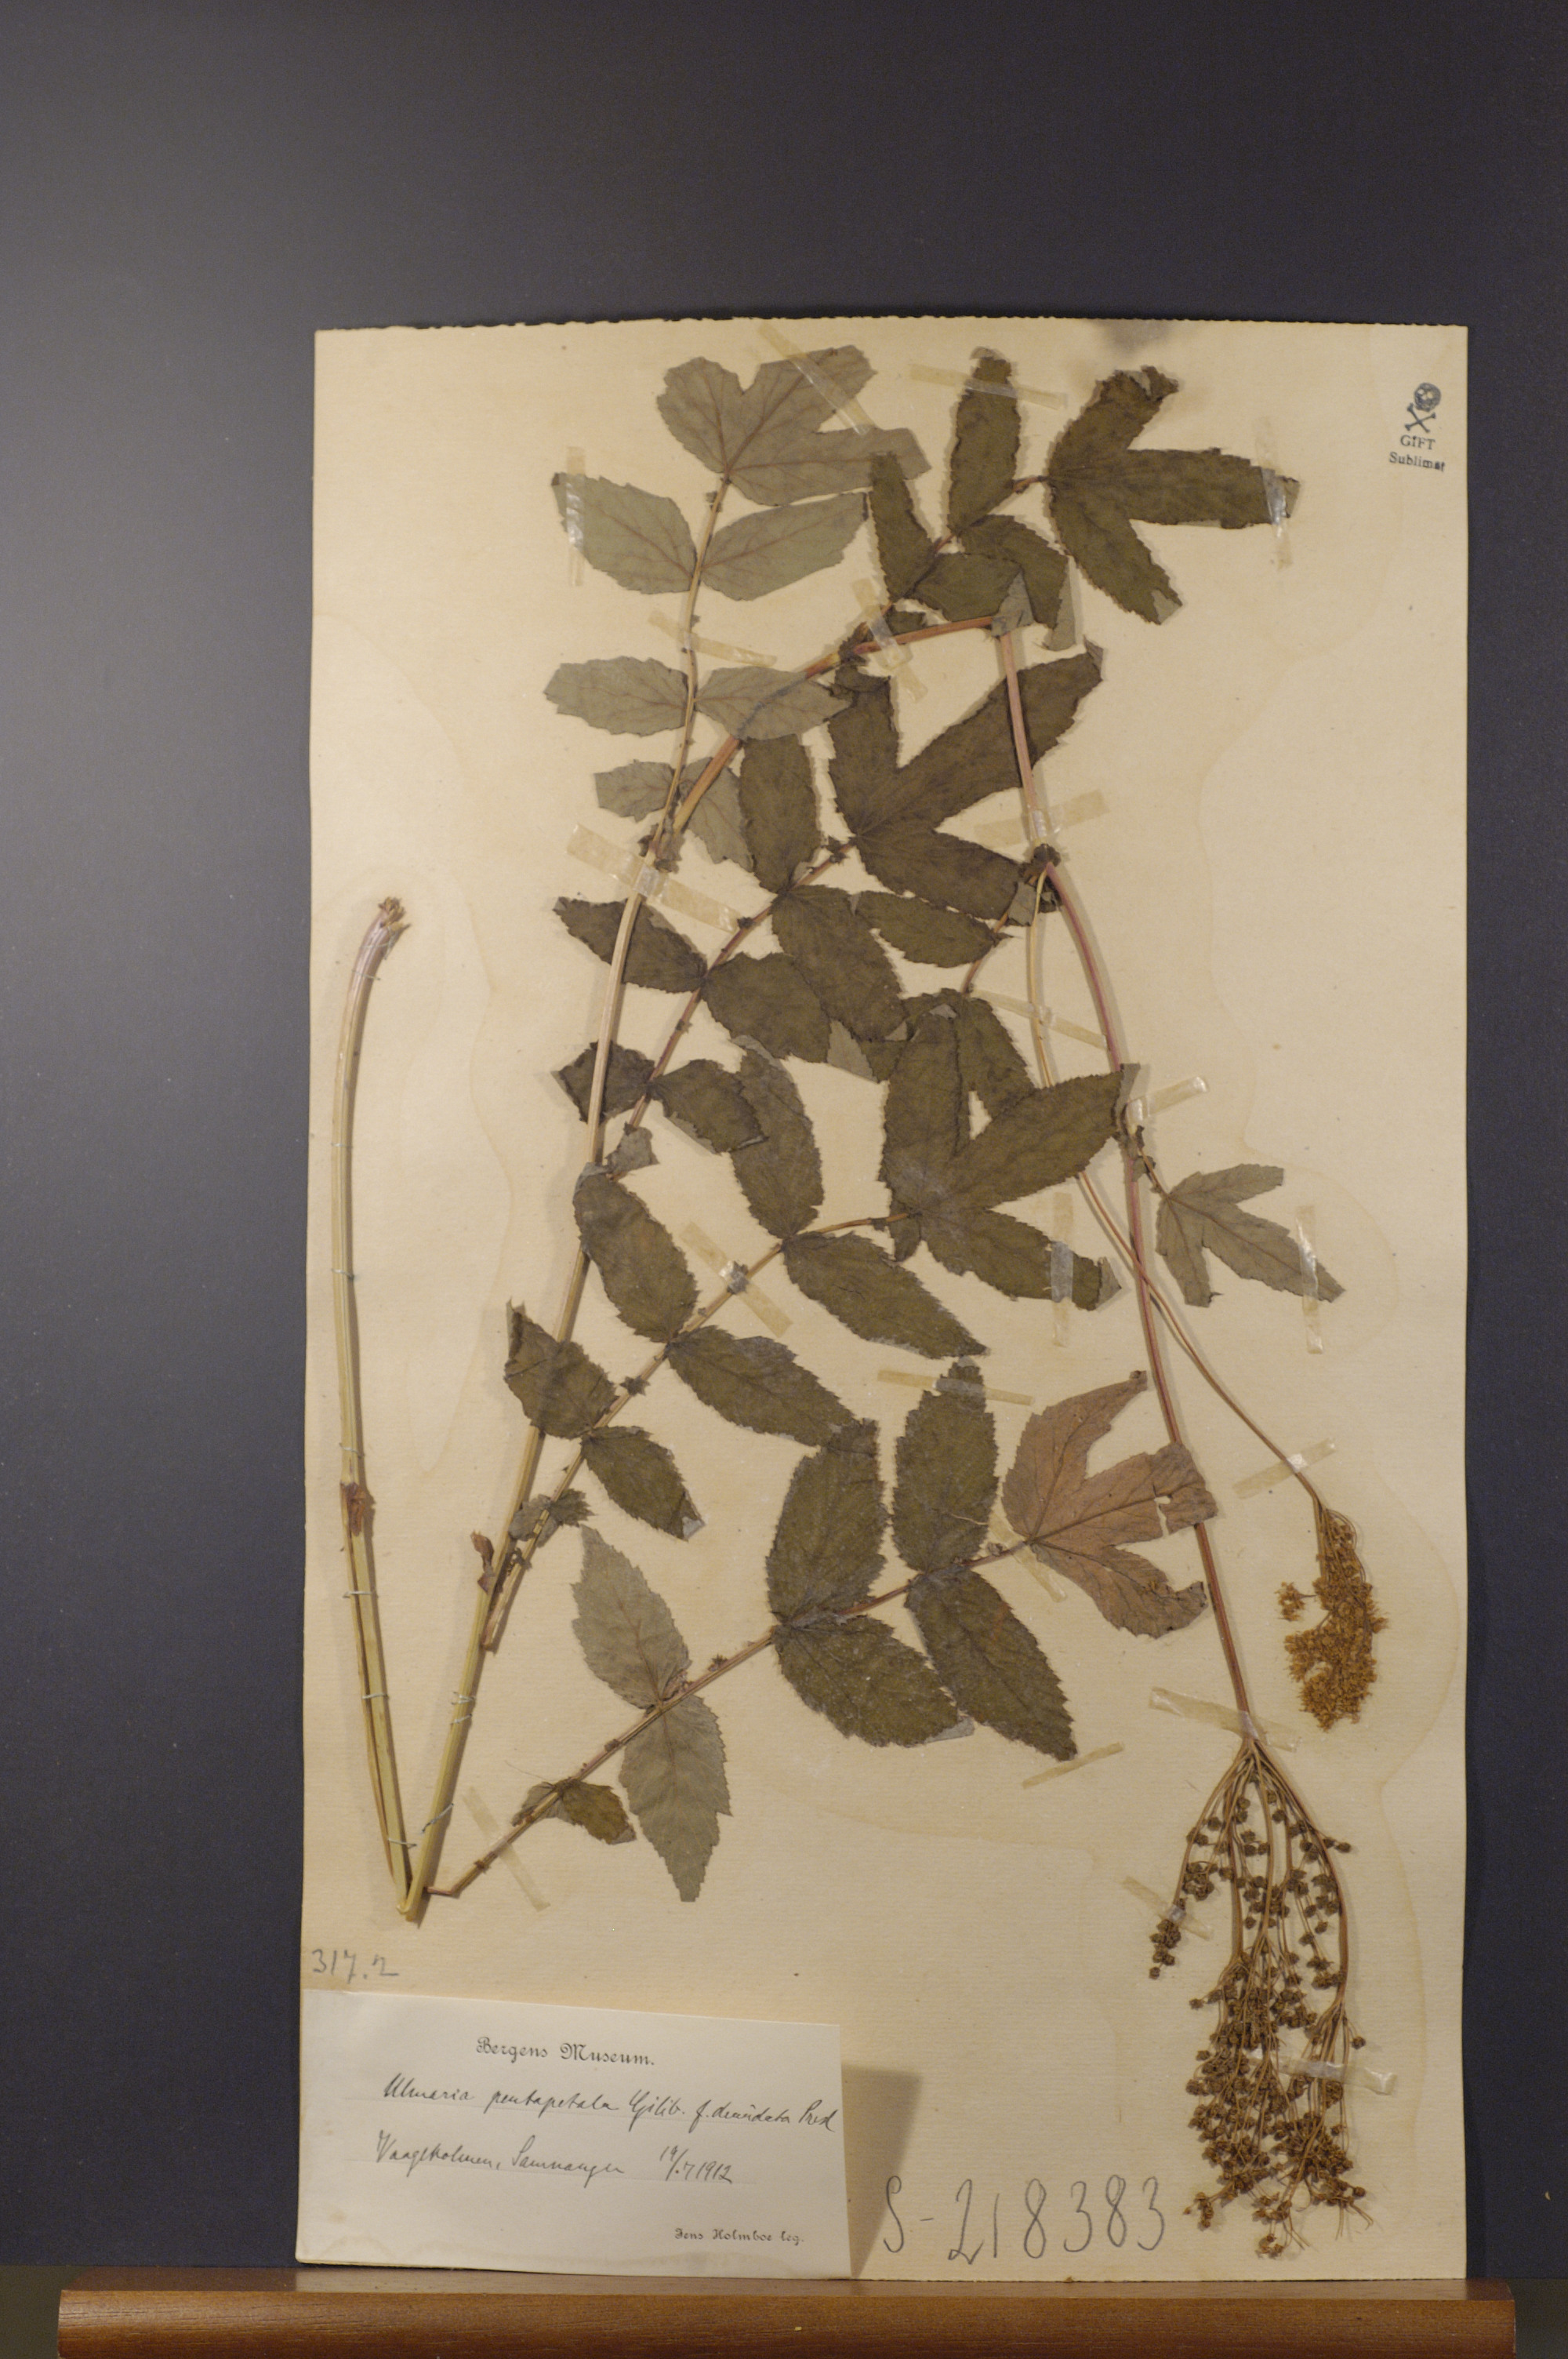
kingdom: Plantae
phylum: Tracheophyta
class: Magnoliopsida
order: Rosales
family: Rosaceae
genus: Filipendula
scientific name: Filipendula ulmaria
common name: Meadowsweet
